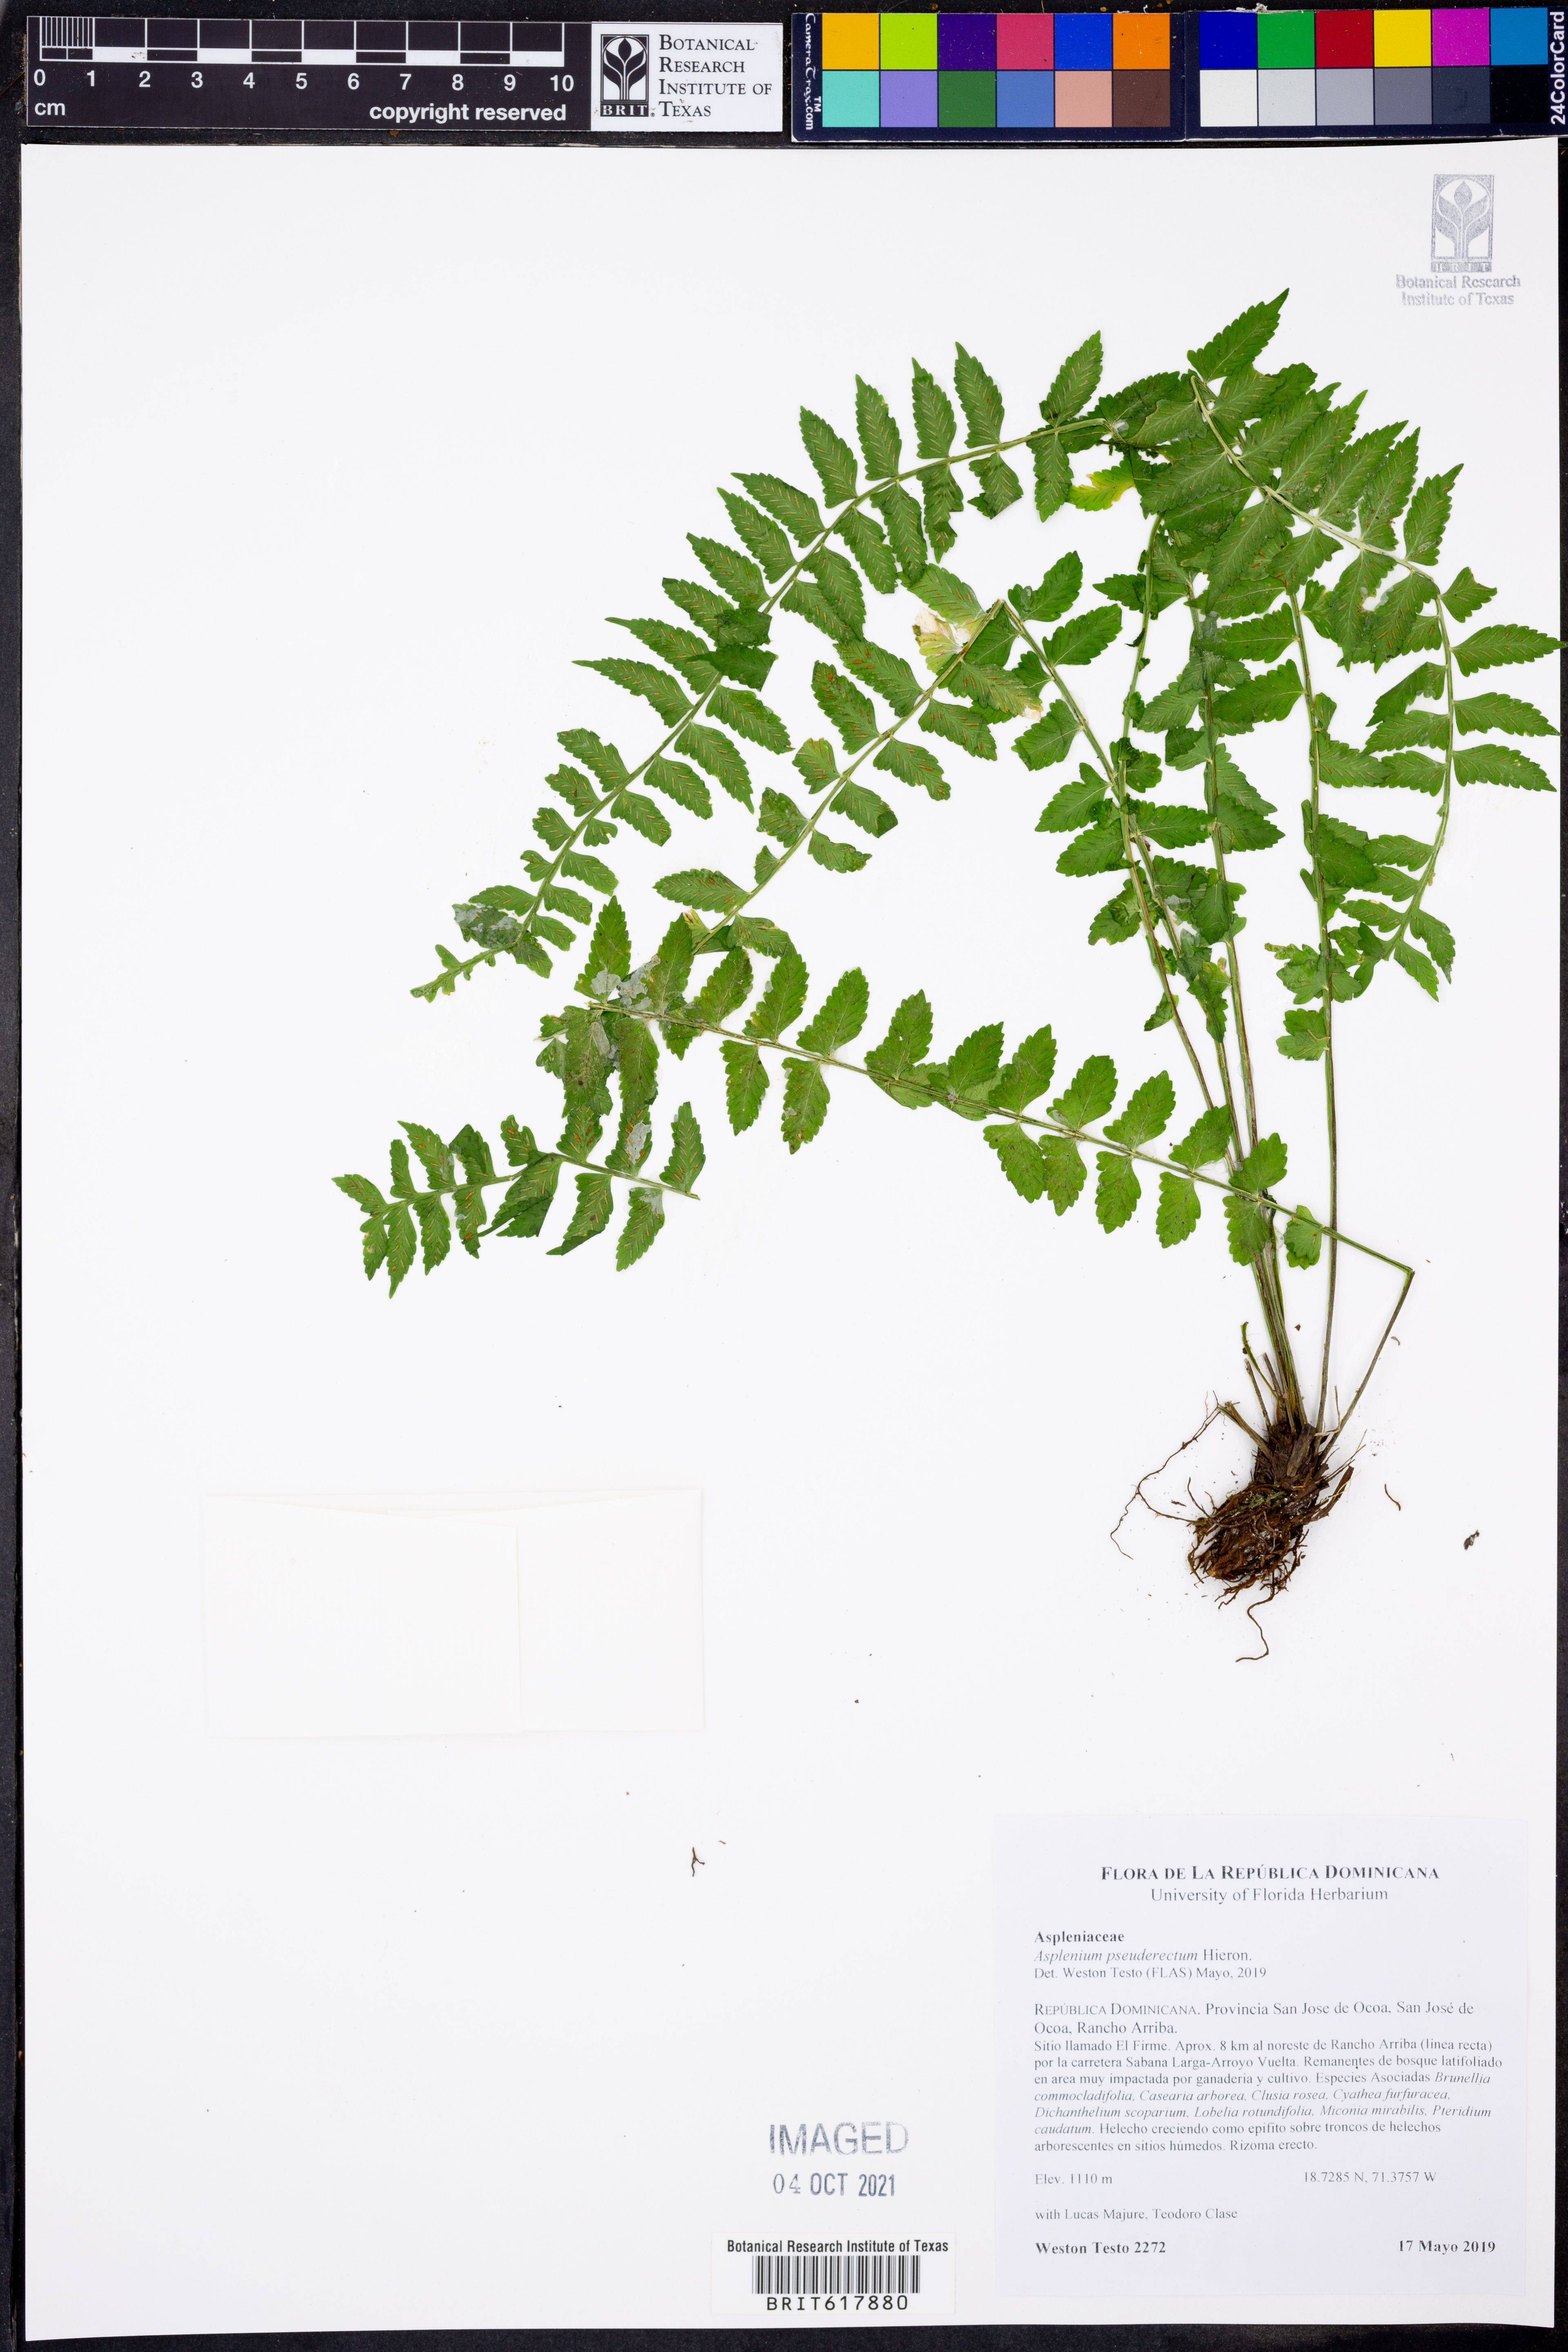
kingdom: Plantae
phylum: Tracheophyta
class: Polypodiopsida
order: Polypodiales
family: Aspleniaceae
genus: Asplenium
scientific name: Asplenium pseuderectum
